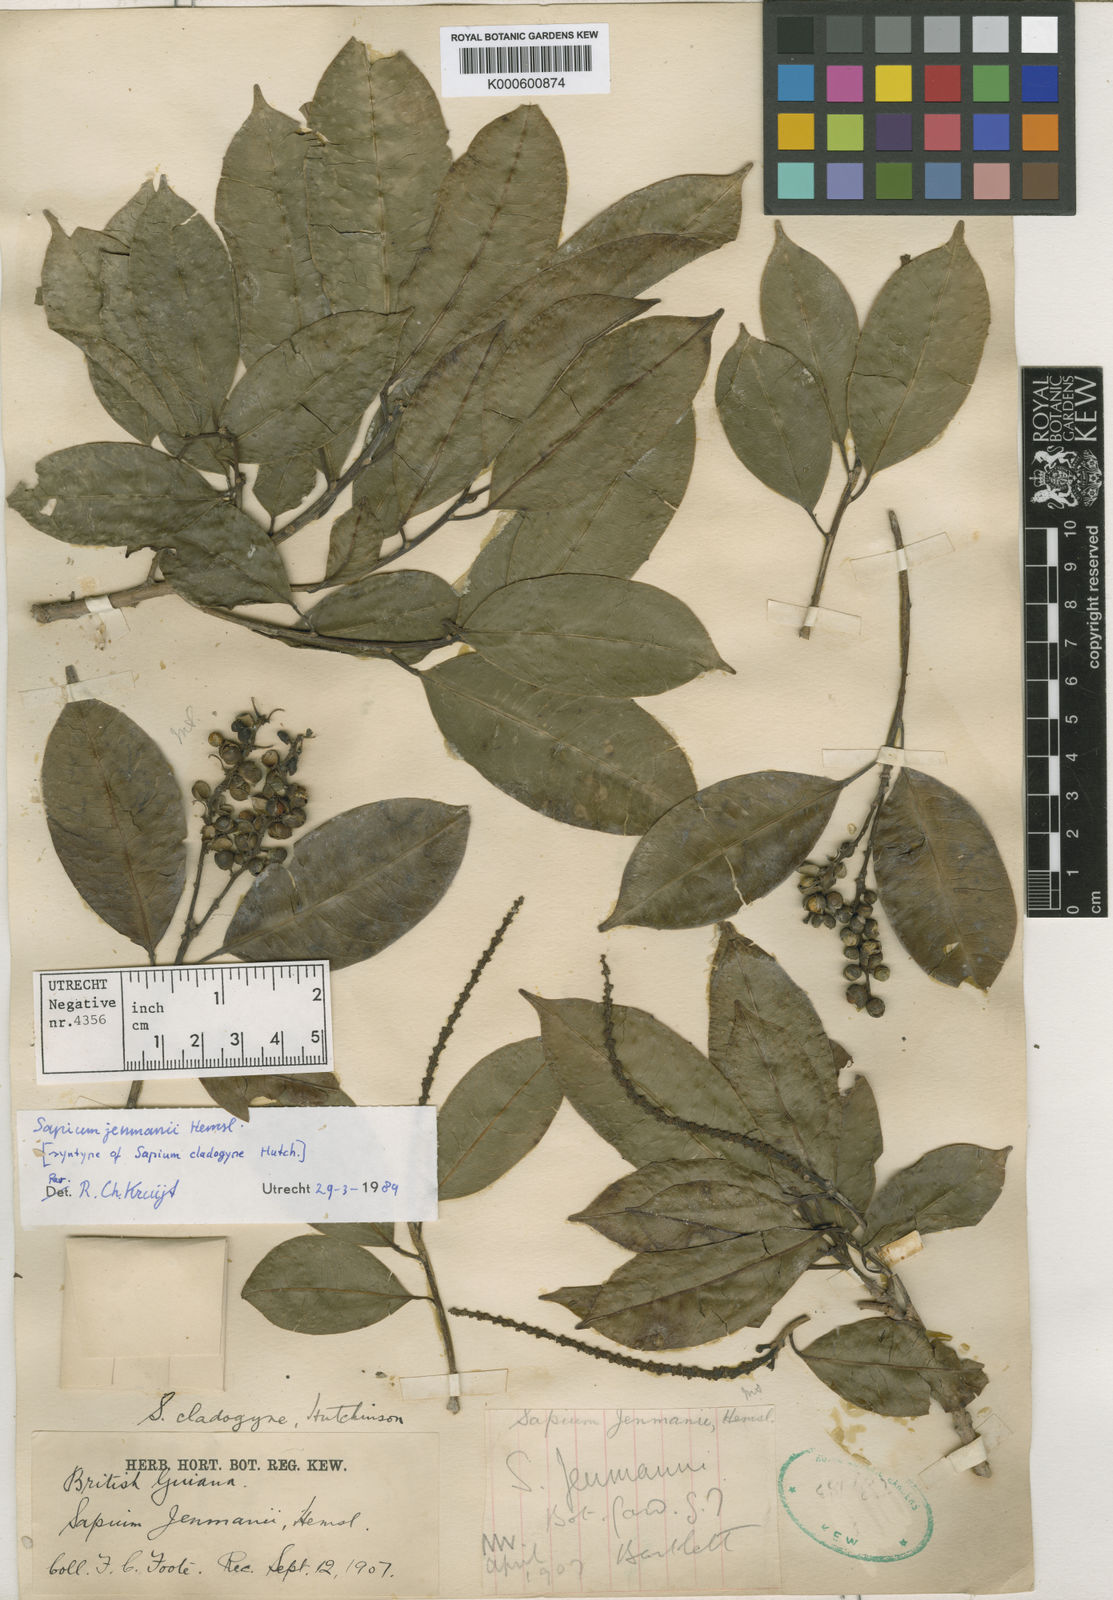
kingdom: Plantae
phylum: Tracheophyta
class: Magnoliopsida
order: Malpighiales
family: Euphorbiaceae
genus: Sapium
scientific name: Sapium jenmannii
